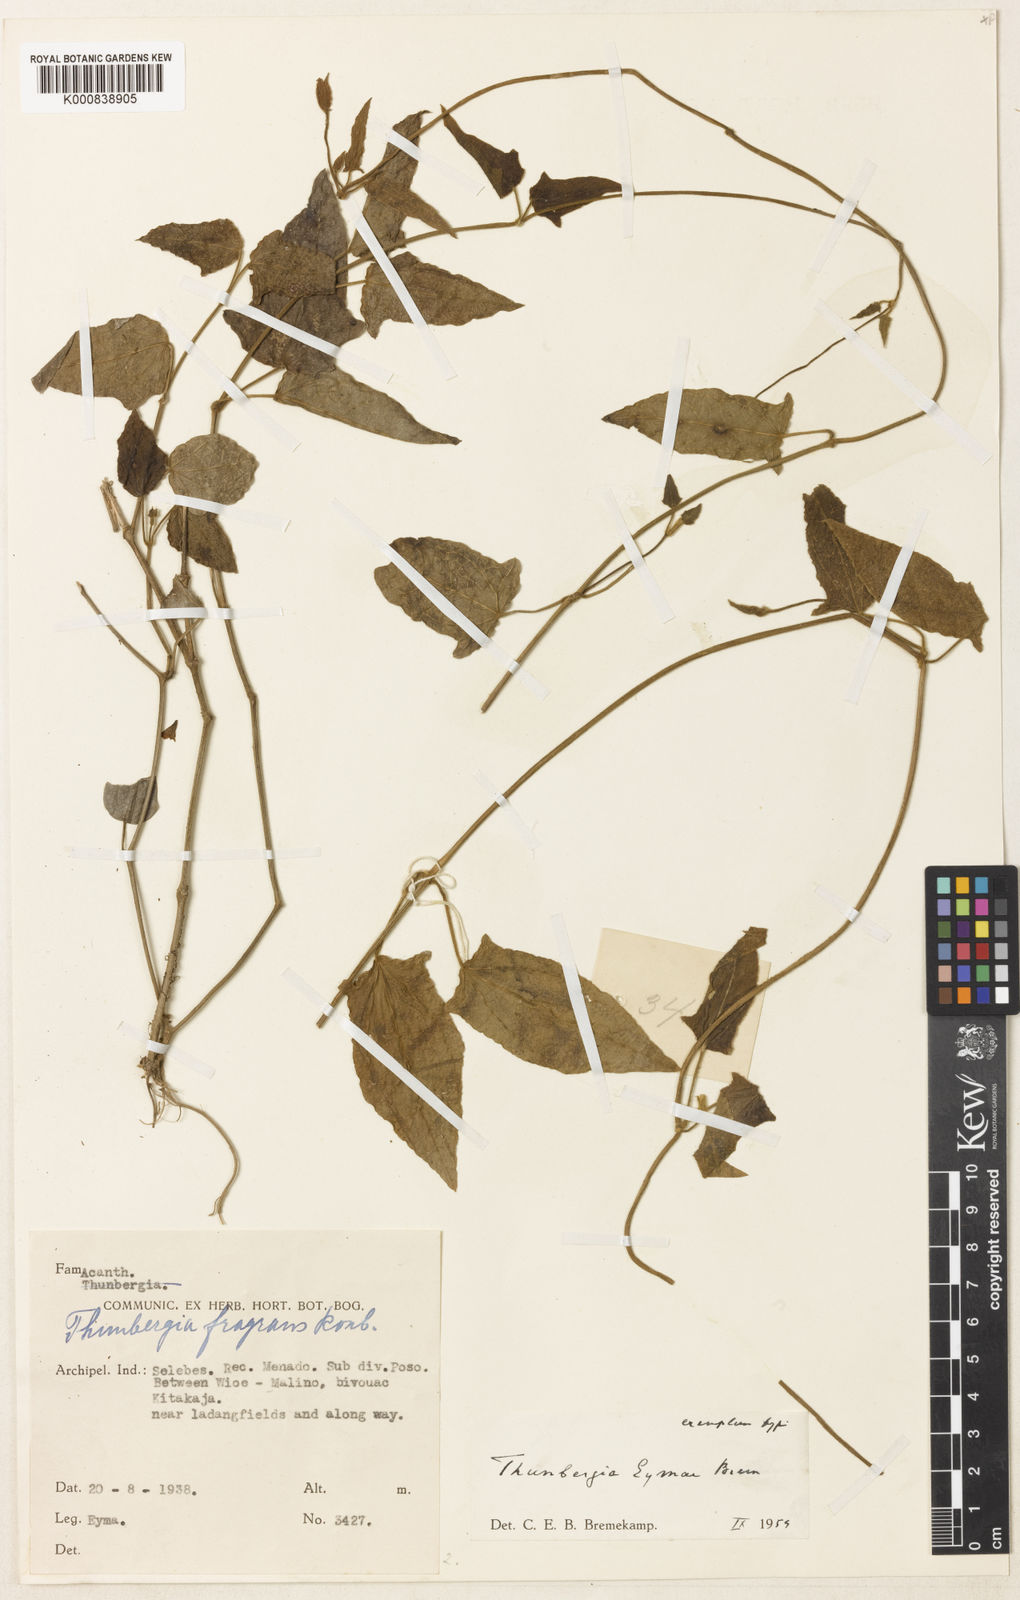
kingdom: Plantae
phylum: Tracheophyta
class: Magnoliopsida
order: Lamiales
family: Acanthaceae
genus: Thunbergia
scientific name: Thunbergia eymae
